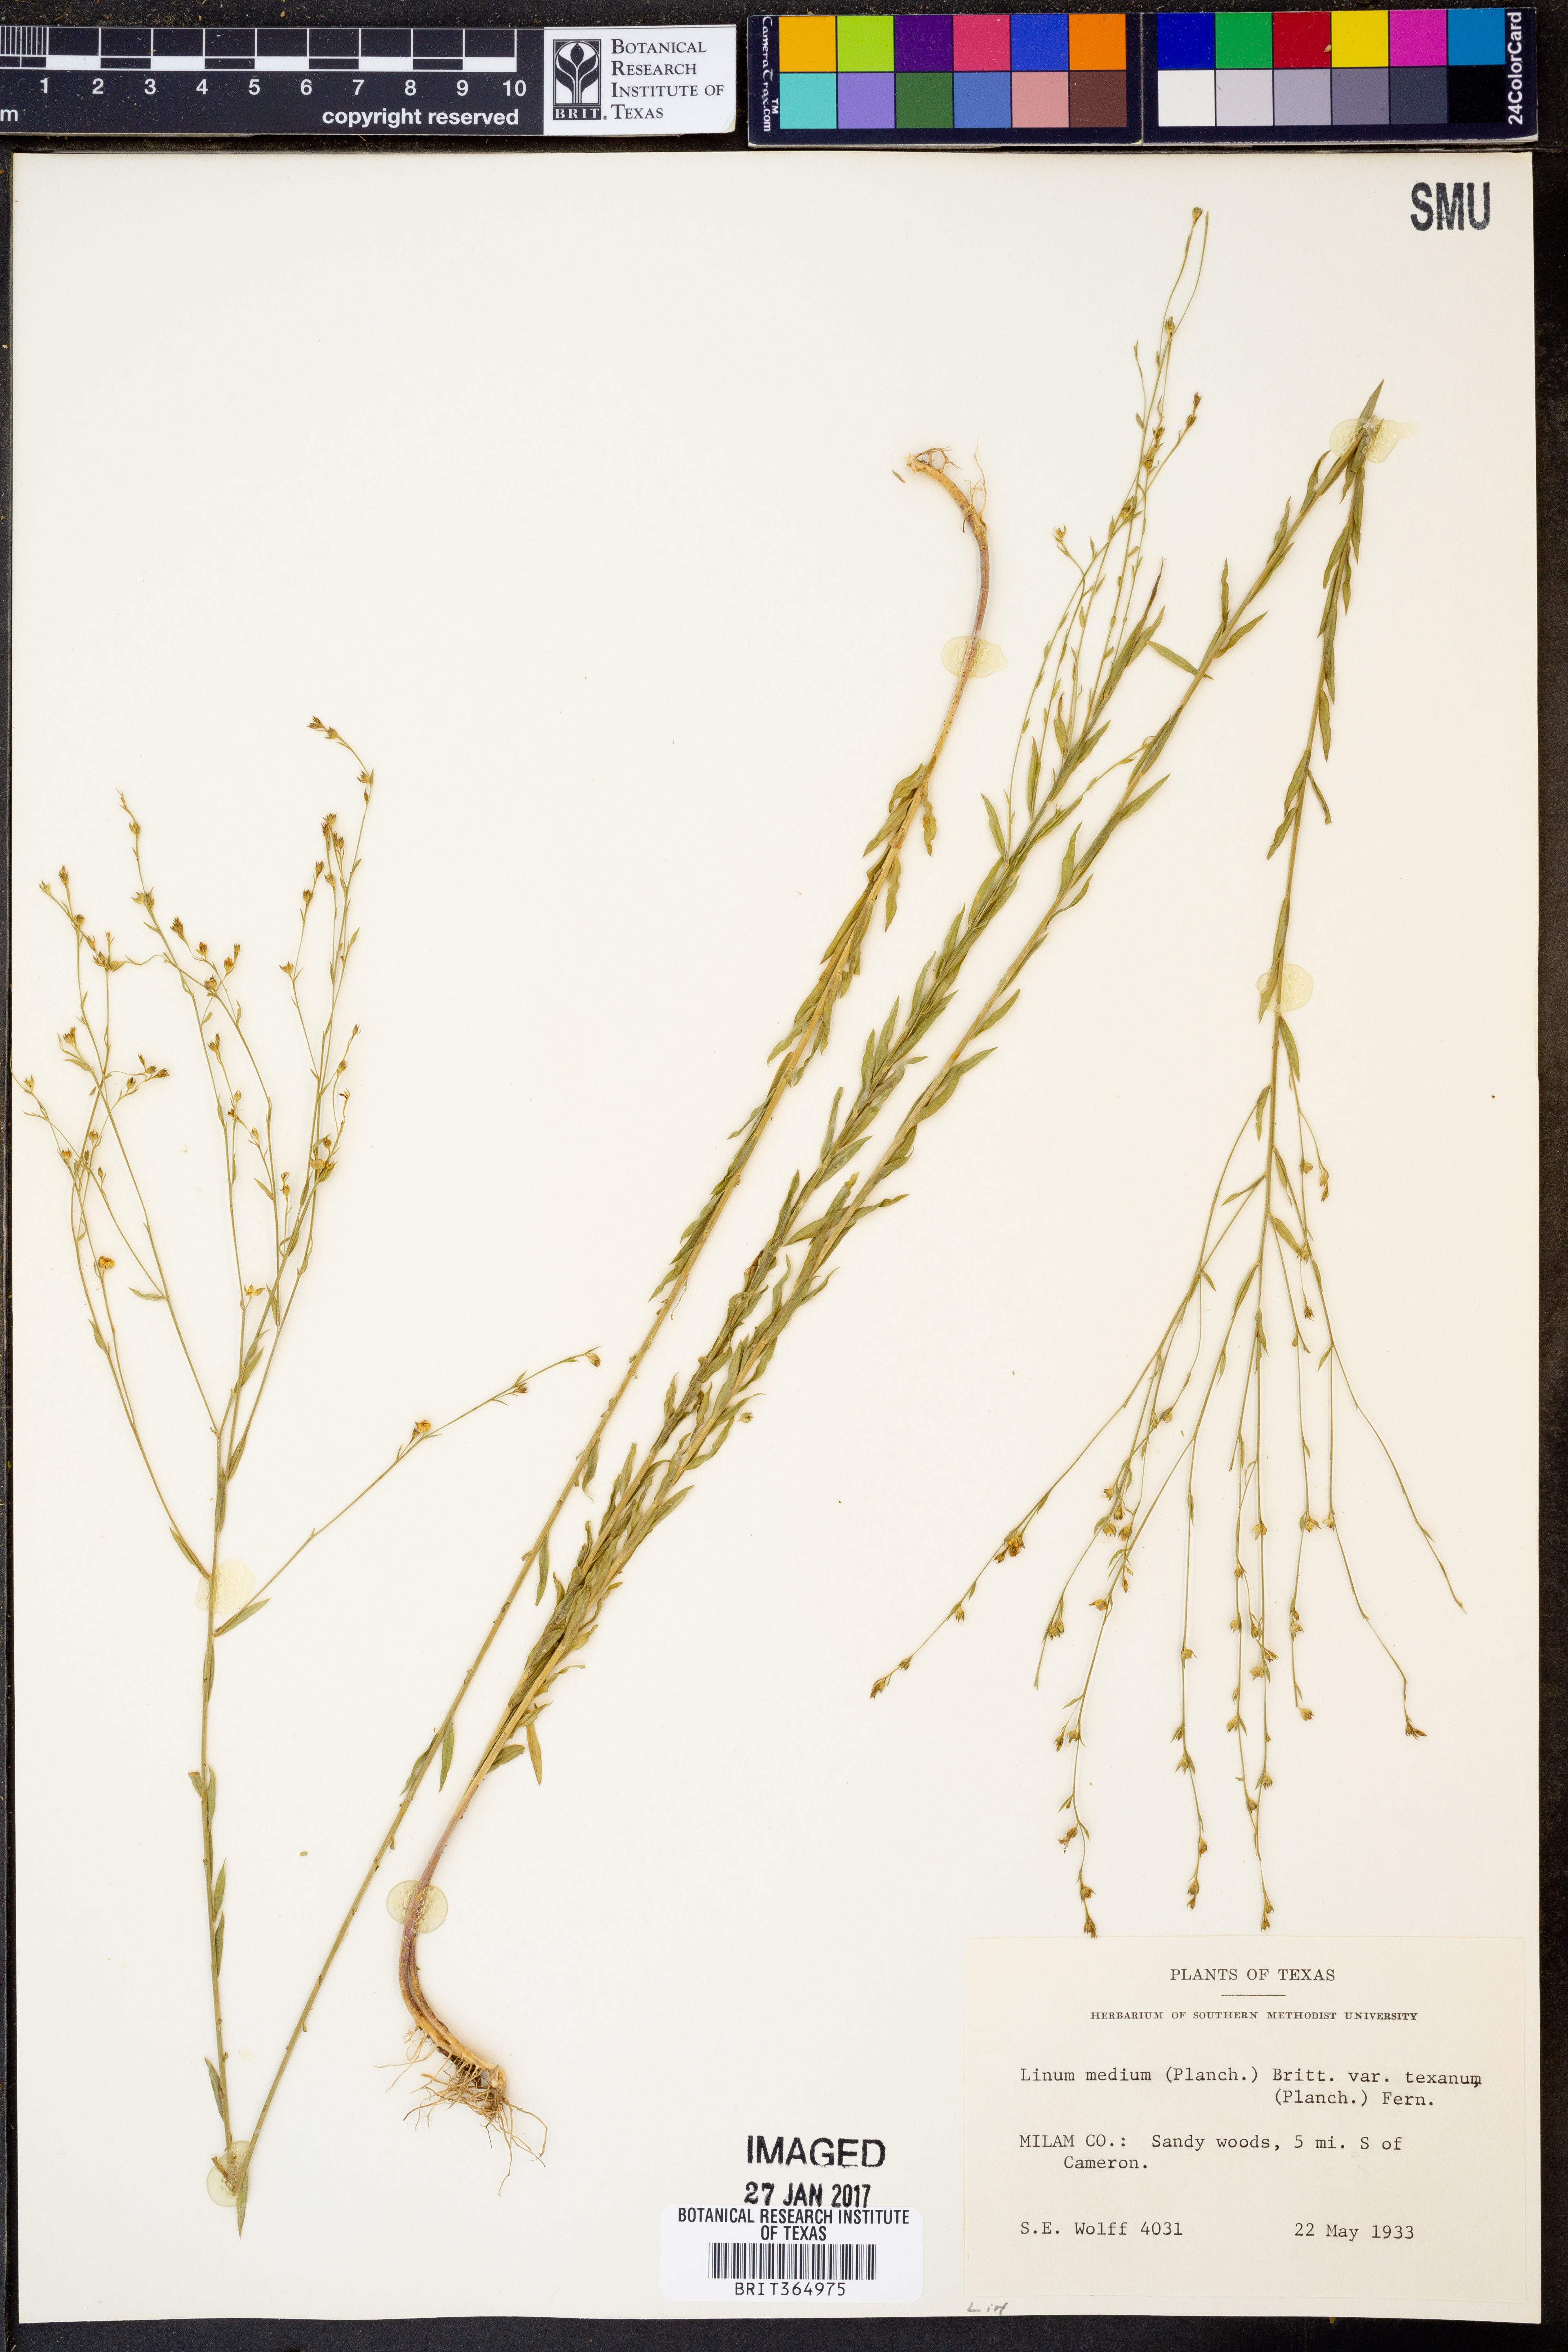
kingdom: Plantae
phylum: Tracheophyta
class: Magnoliopsida
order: Malpighiales
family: Linaceae
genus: Linum
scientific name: Linum medium
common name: Stiff yellow flax
